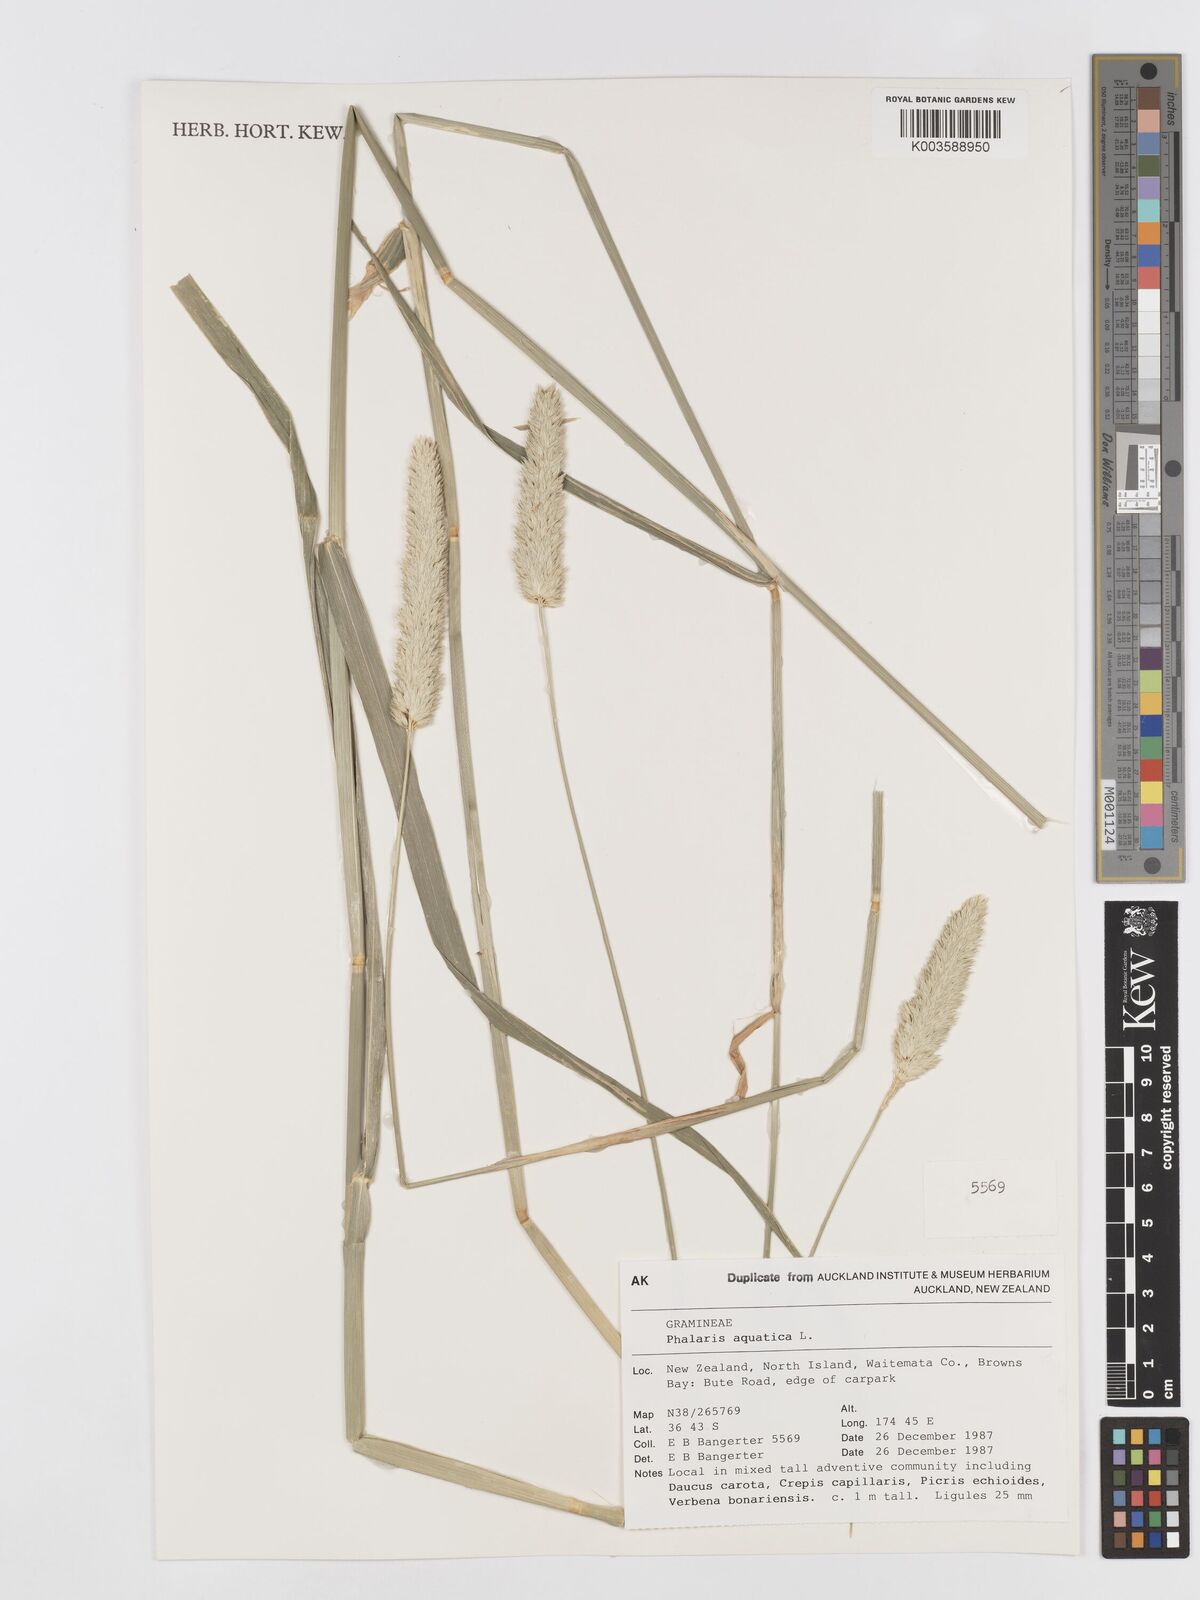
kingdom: Plantae
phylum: Tracheophyta
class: Liliopsida
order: Poales
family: Poaceae
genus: Phalaris
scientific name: Phalaris aquatica
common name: Bulbous canary-grass
